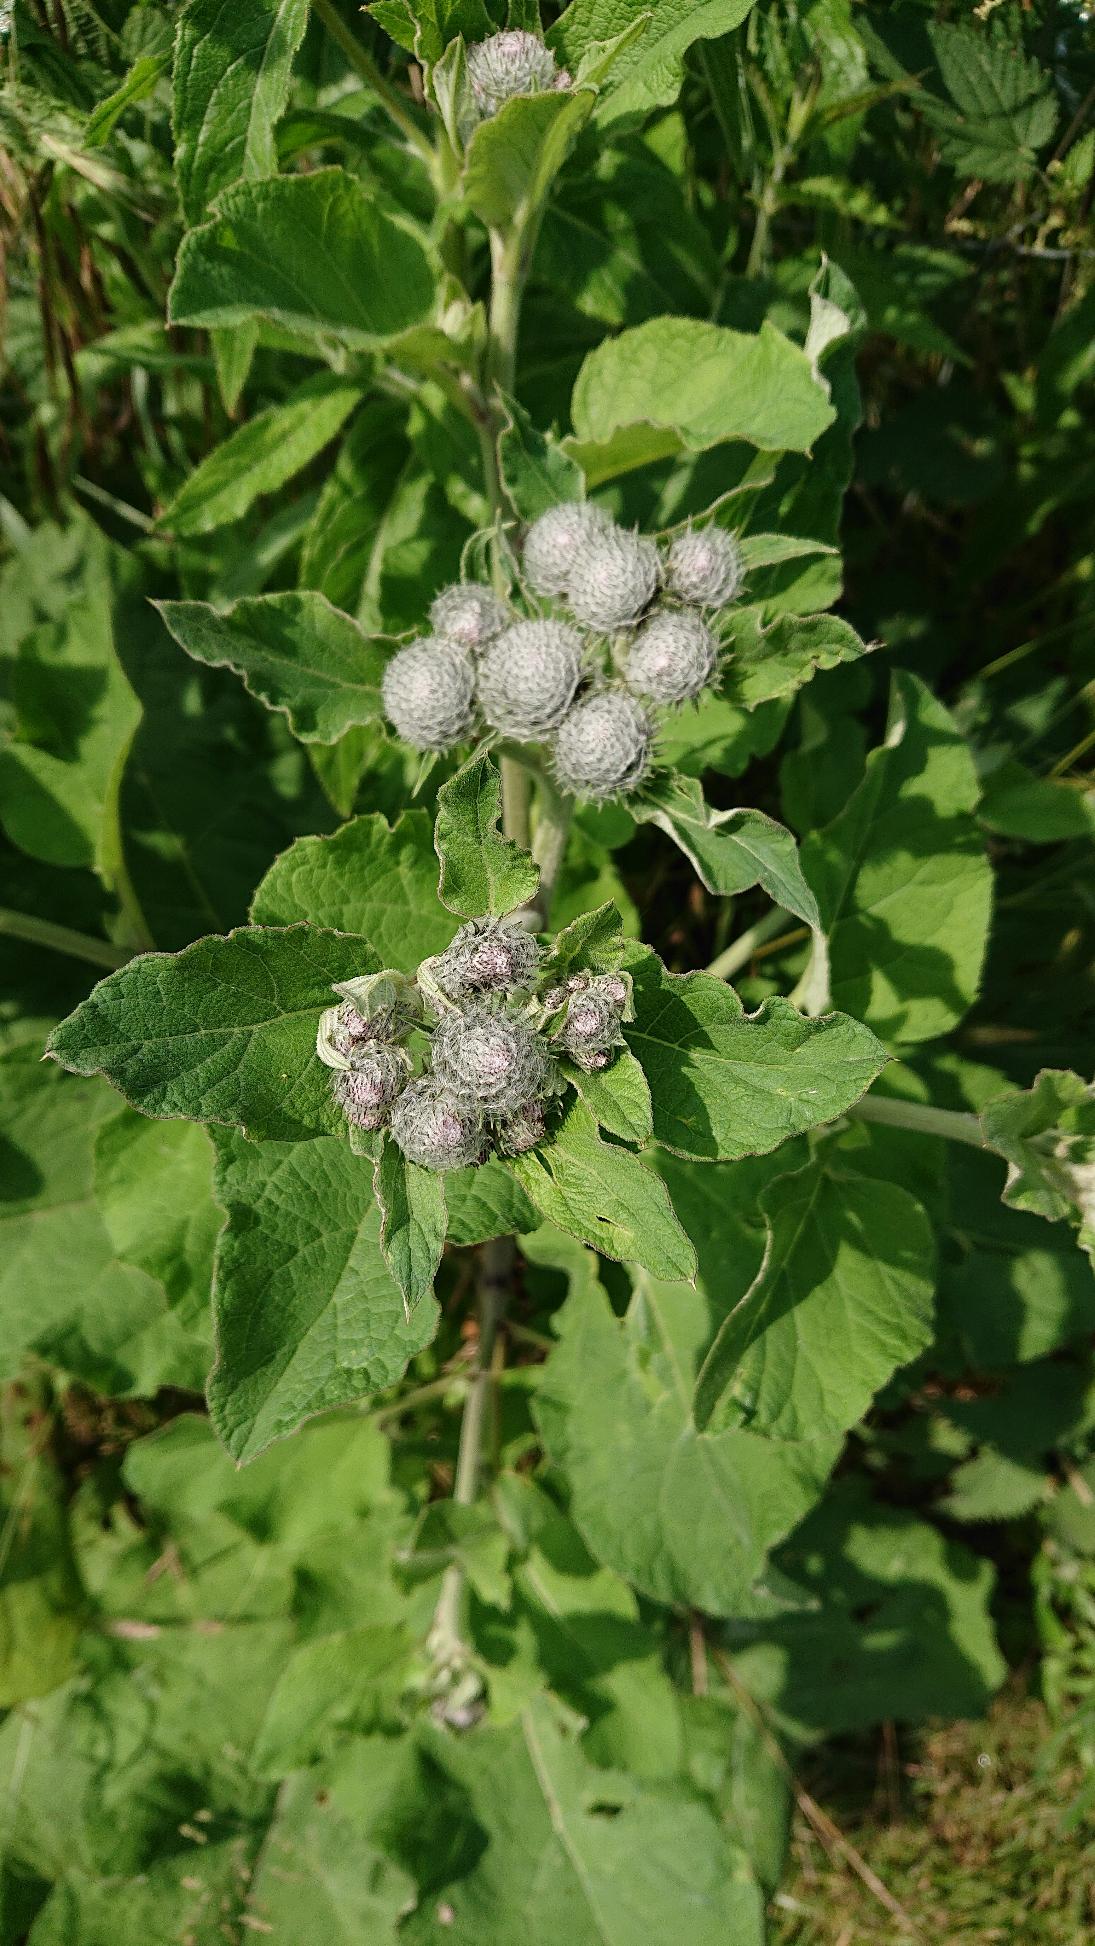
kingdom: Plantae
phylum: Tracheophyta
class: Magnoliopsida
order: Asterales
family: Asteraceae
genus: Arctium
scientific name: Arctium tomentosum
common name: Filtet burre
